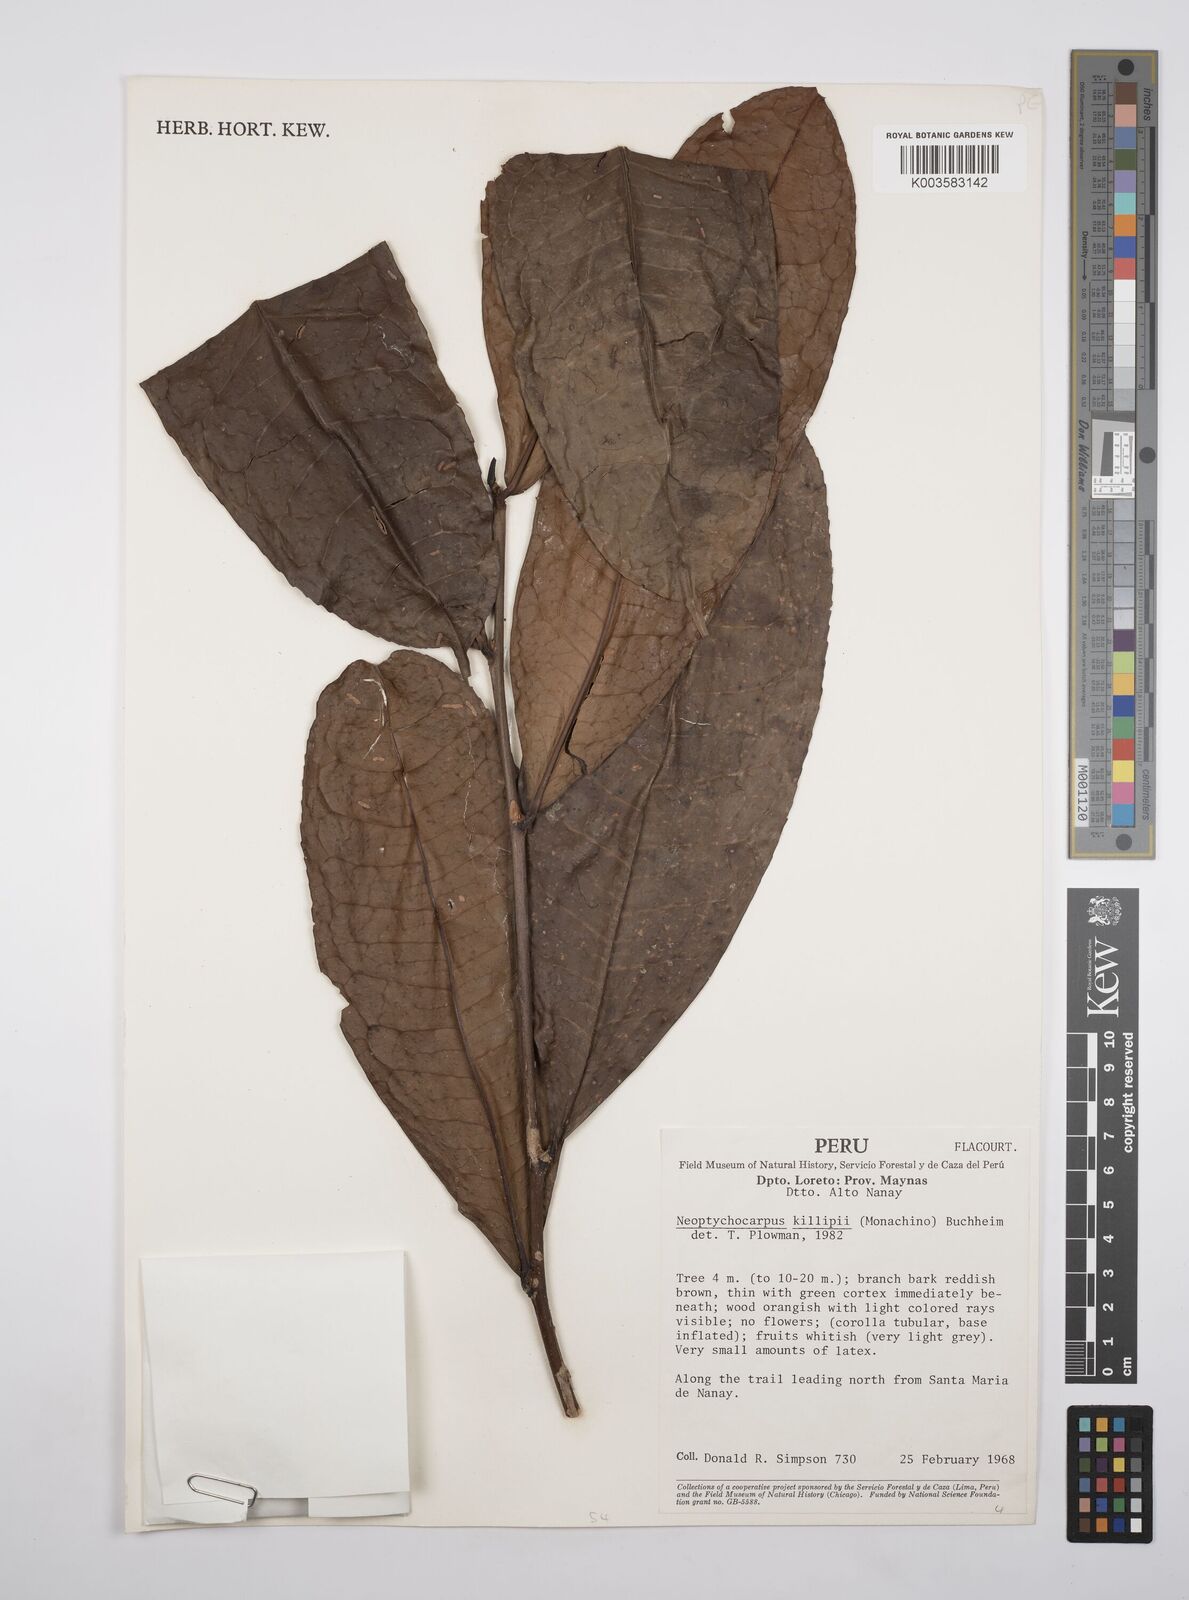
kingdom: Plantae
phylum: Tracheophyta
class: Magnoliopsida
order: Malpighiales
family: Salicaceae
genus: Casearia
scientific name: Casearia killipii
